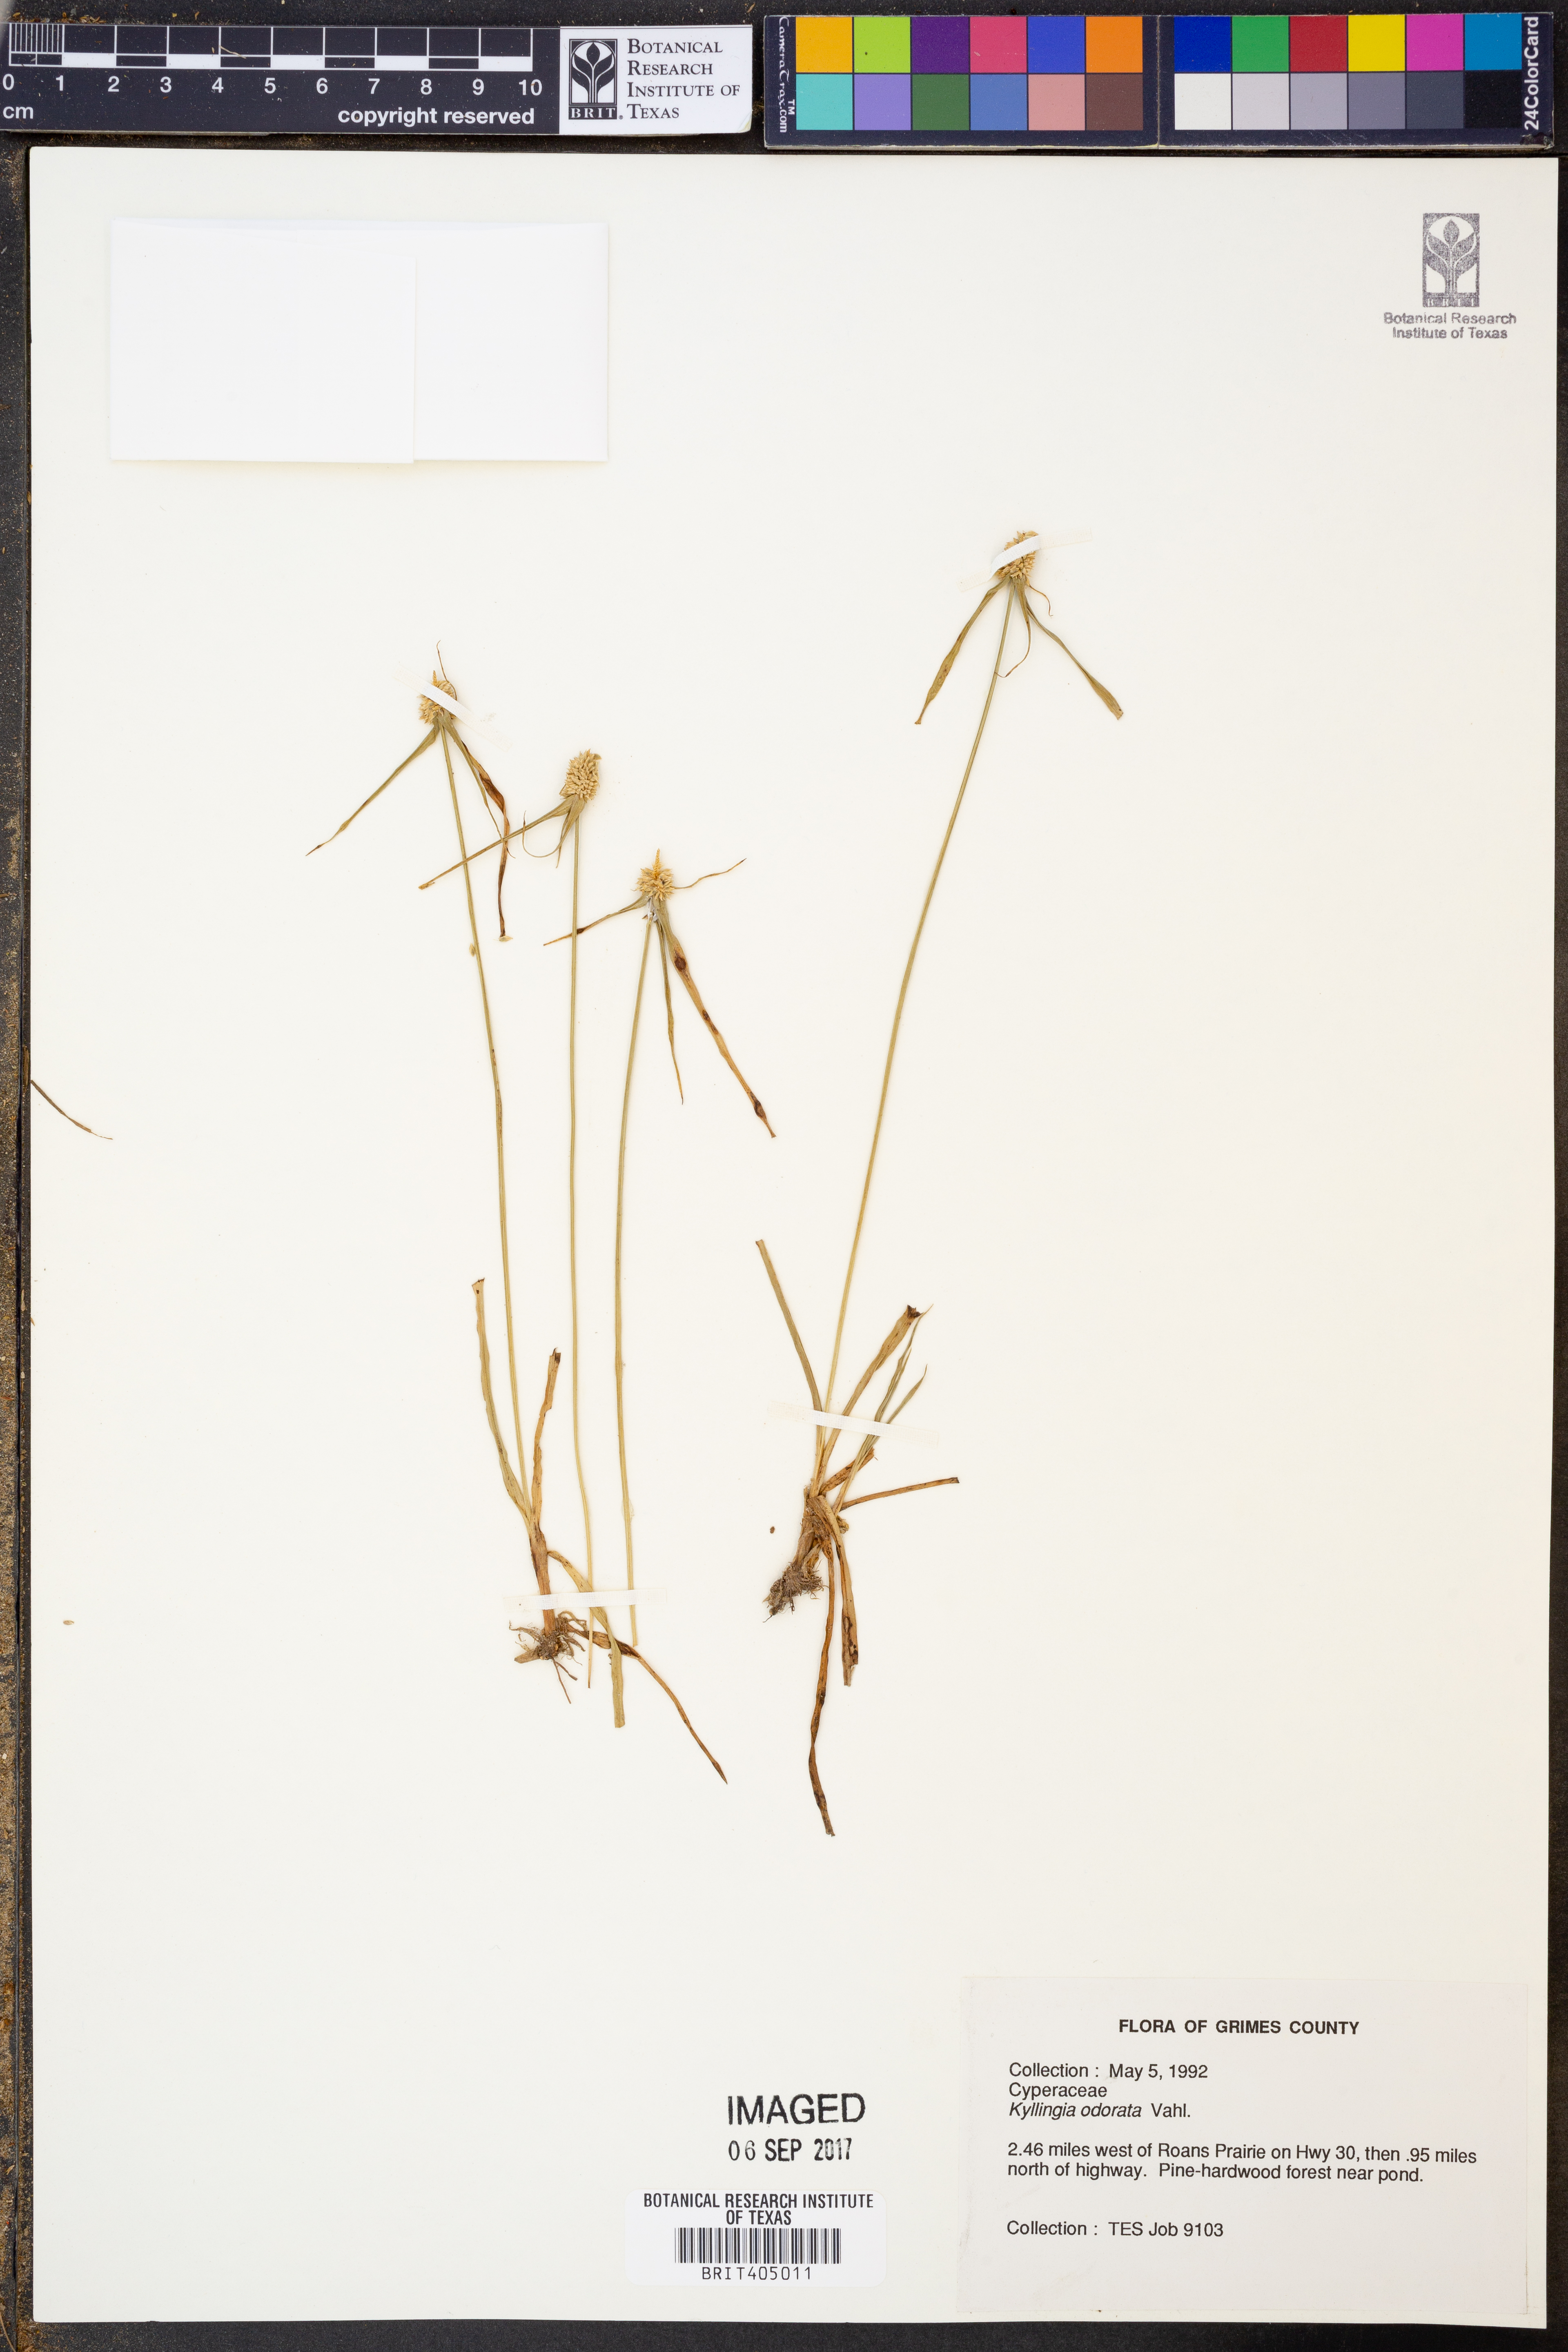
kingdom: Plantae
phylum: Tracheophyta
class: Liliopsida
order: Poales
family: Cyperaceae
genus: Cyperus
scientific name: Cyperus sesquiflorus
